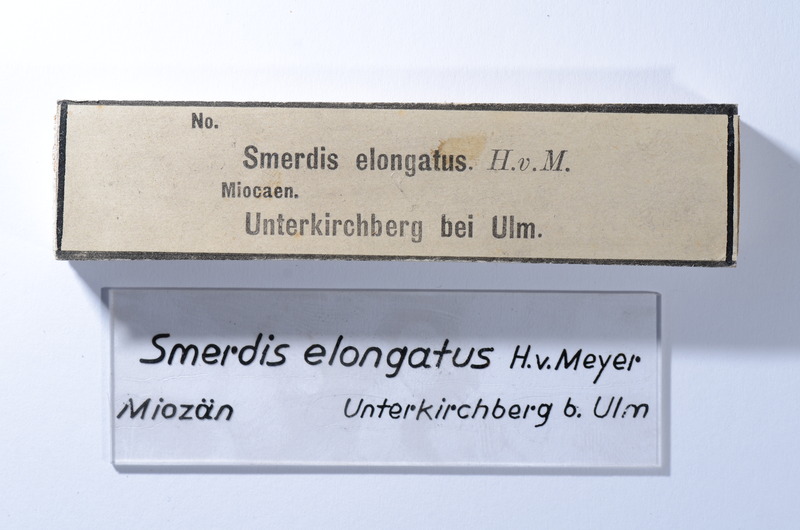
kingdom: Animalia
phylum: Arthropoda
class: Malacostraca
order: Stomatopoda
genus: Smerdis
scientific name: Smerdis
